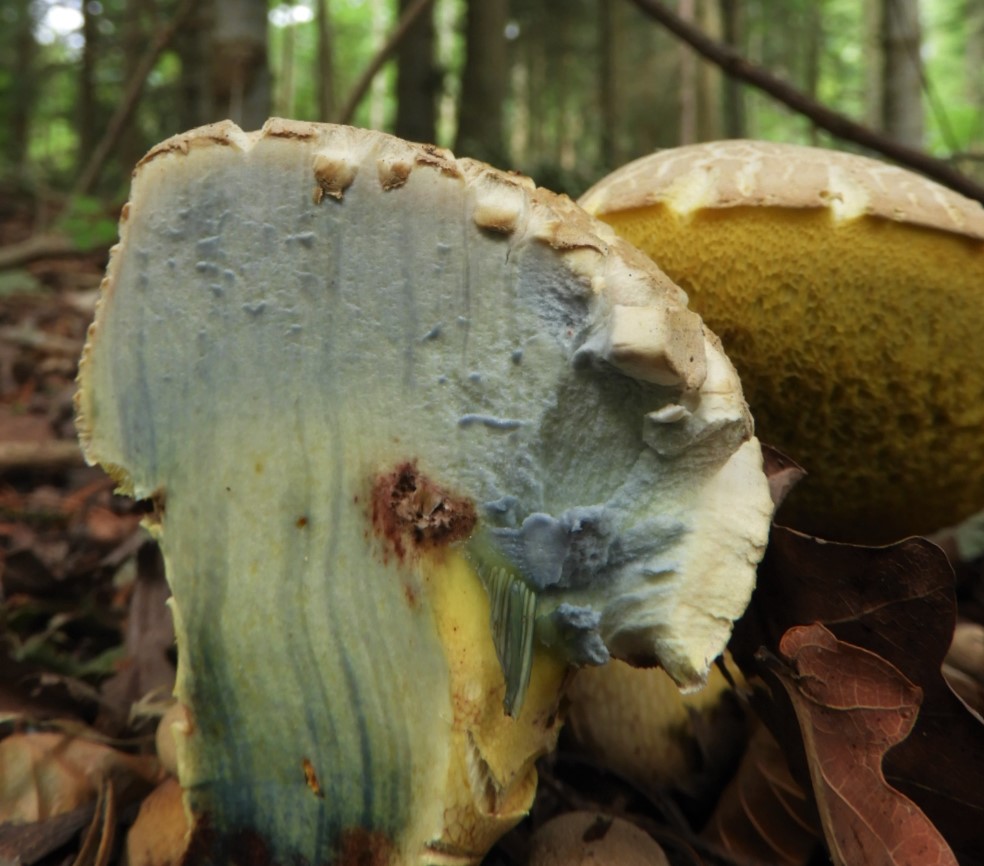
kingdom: Fungi
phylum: Basidiomycota
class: Agaricomycetes
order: Boletales
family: Boletaceae
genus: Caloboletus
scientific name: Caloboletus radicans
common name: rod-rørhat
